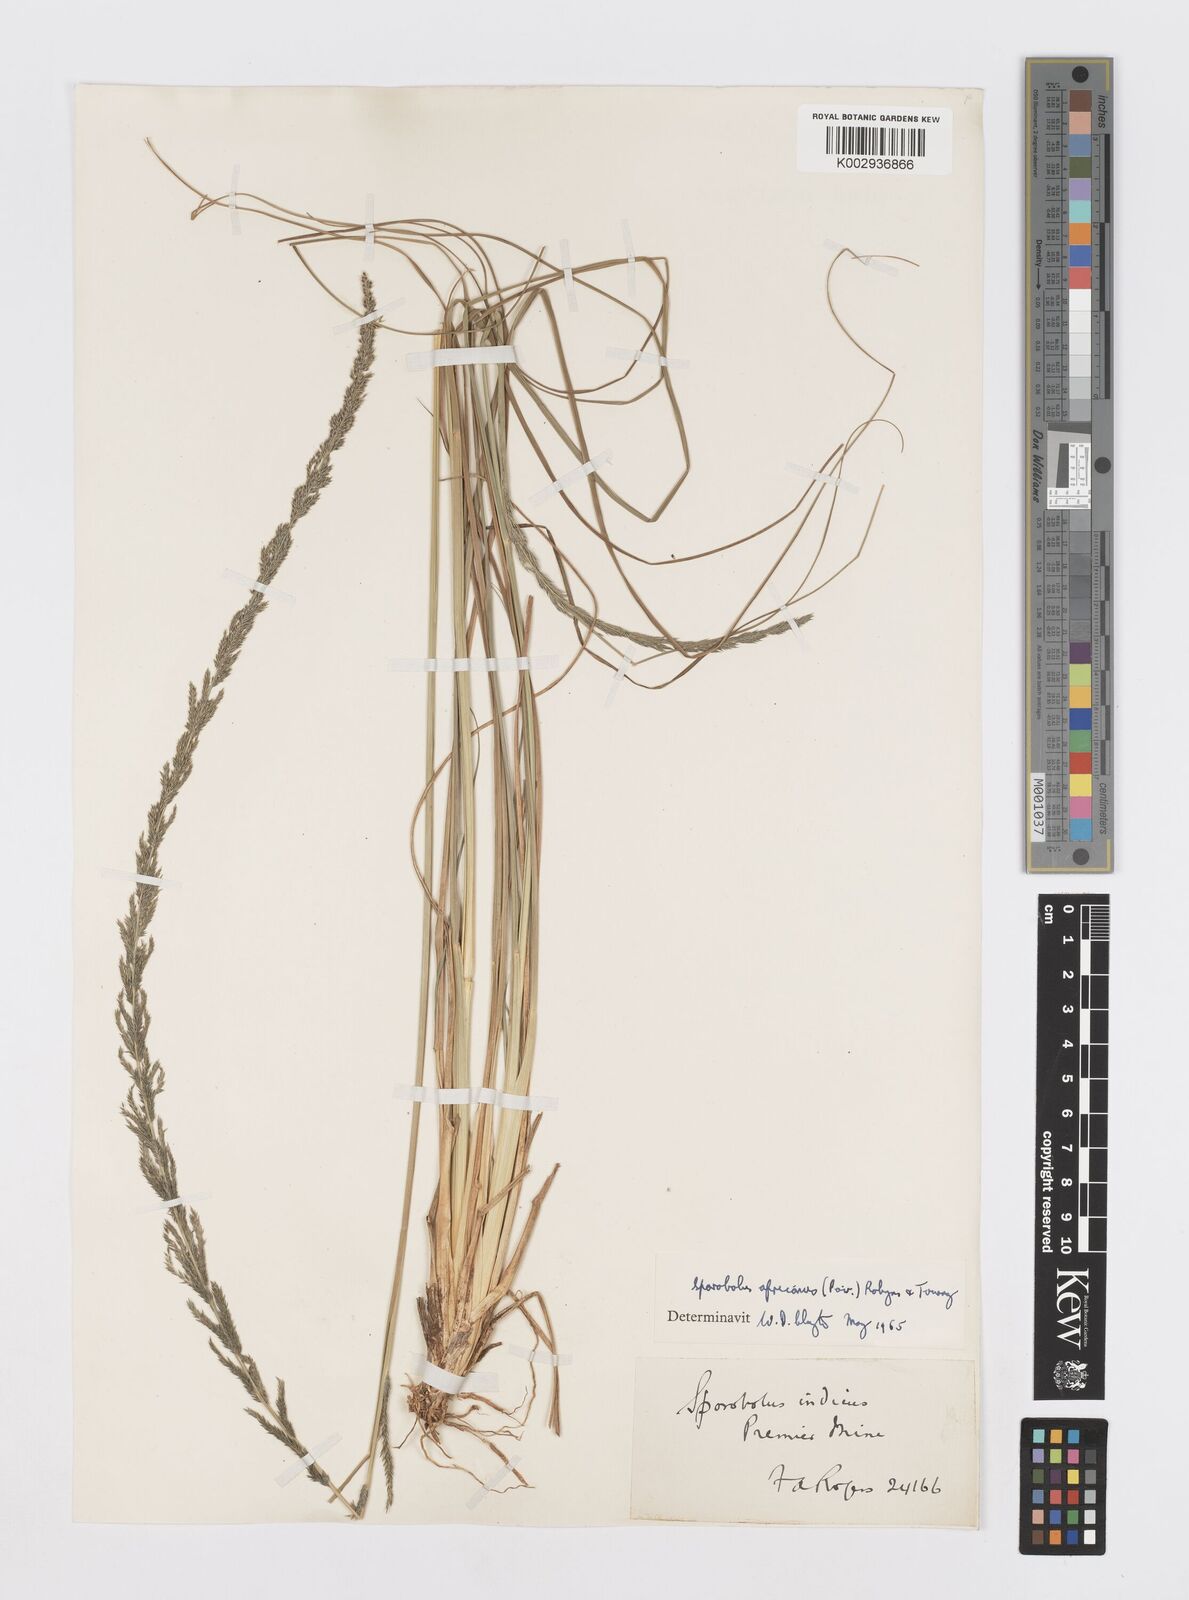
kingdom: Plantae
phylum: Tracheophyta
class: Liliopsida
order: Poales
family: Poaceae
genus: Sporobolus
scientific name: Sporobolus africanus
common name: African dropseed
